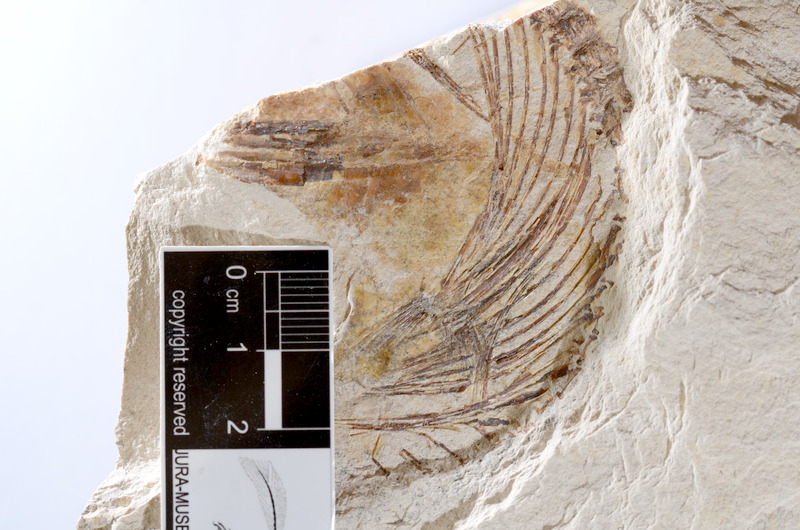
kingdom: Animalia
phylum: Chordata
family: Ascalaboidae
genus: Tharsis
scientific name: Tharsis dubius
